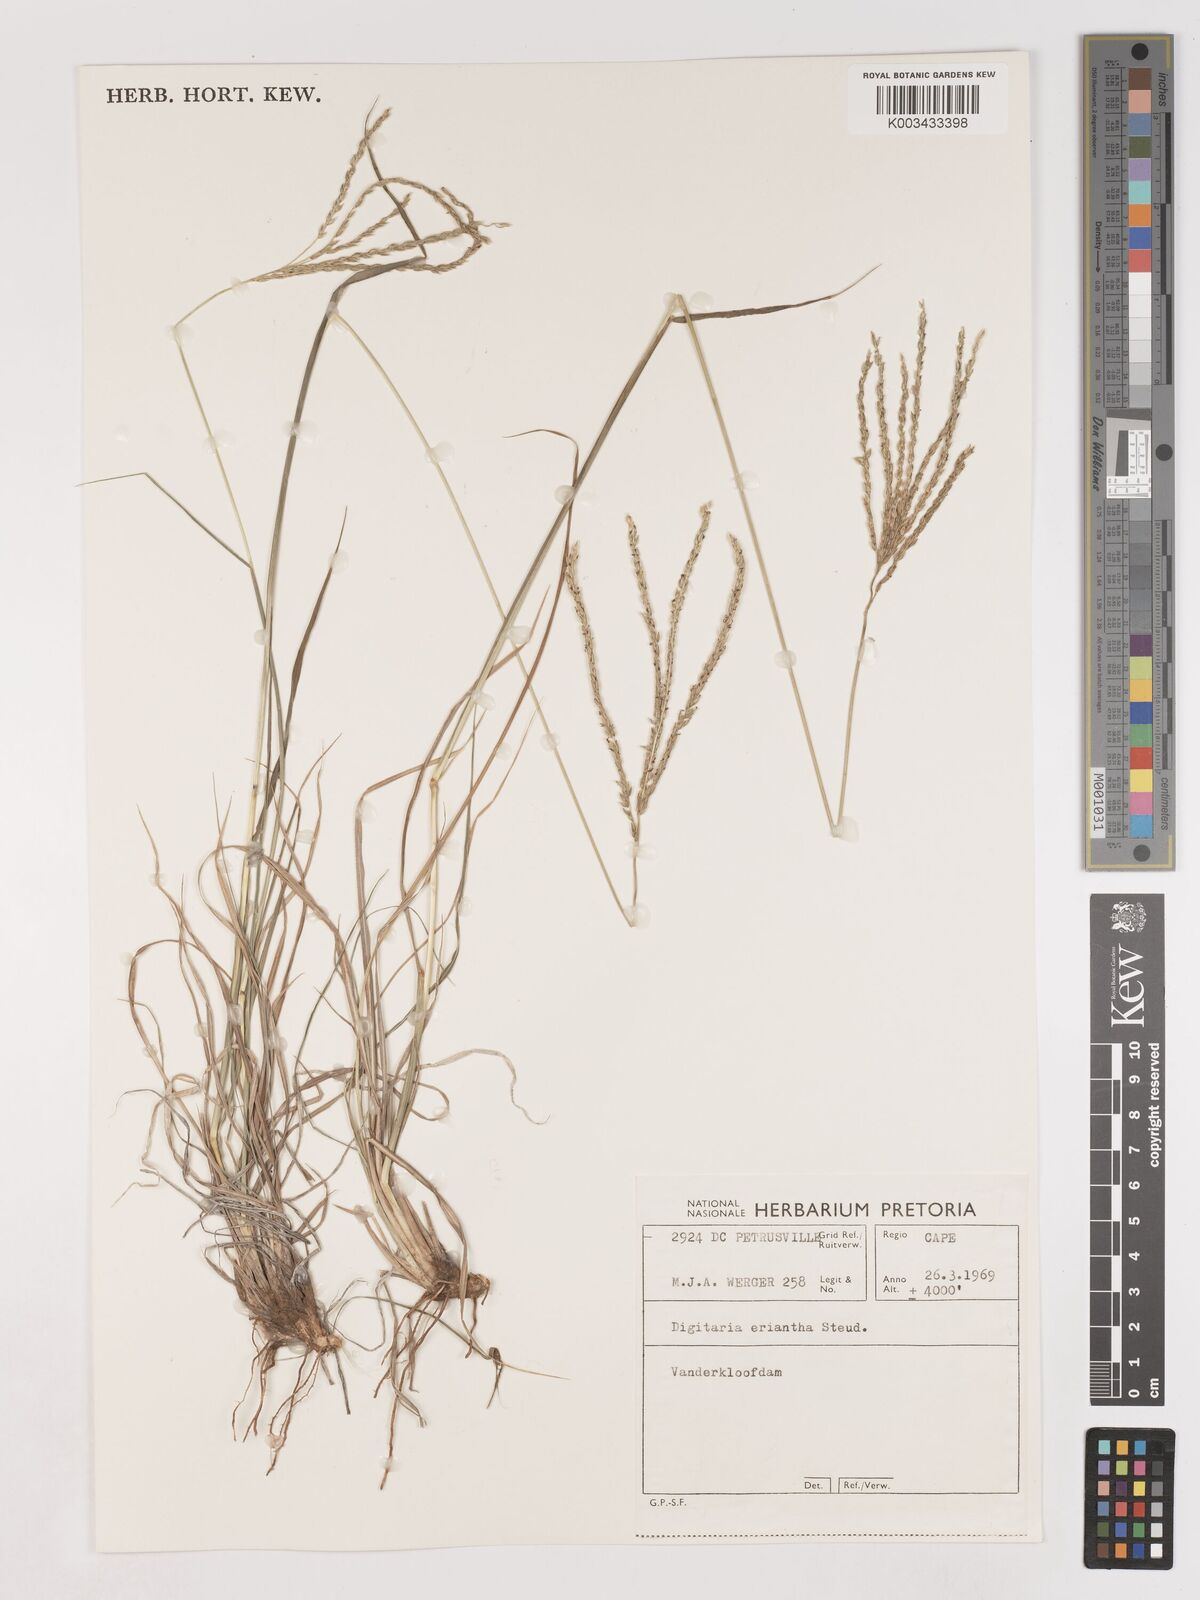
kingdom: Plantae
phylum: Tracheophyta
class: Liliopsida
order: Poales
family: Poaceae
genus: Digitaria
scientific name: Digitaria eriantha
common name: Digitgrass
